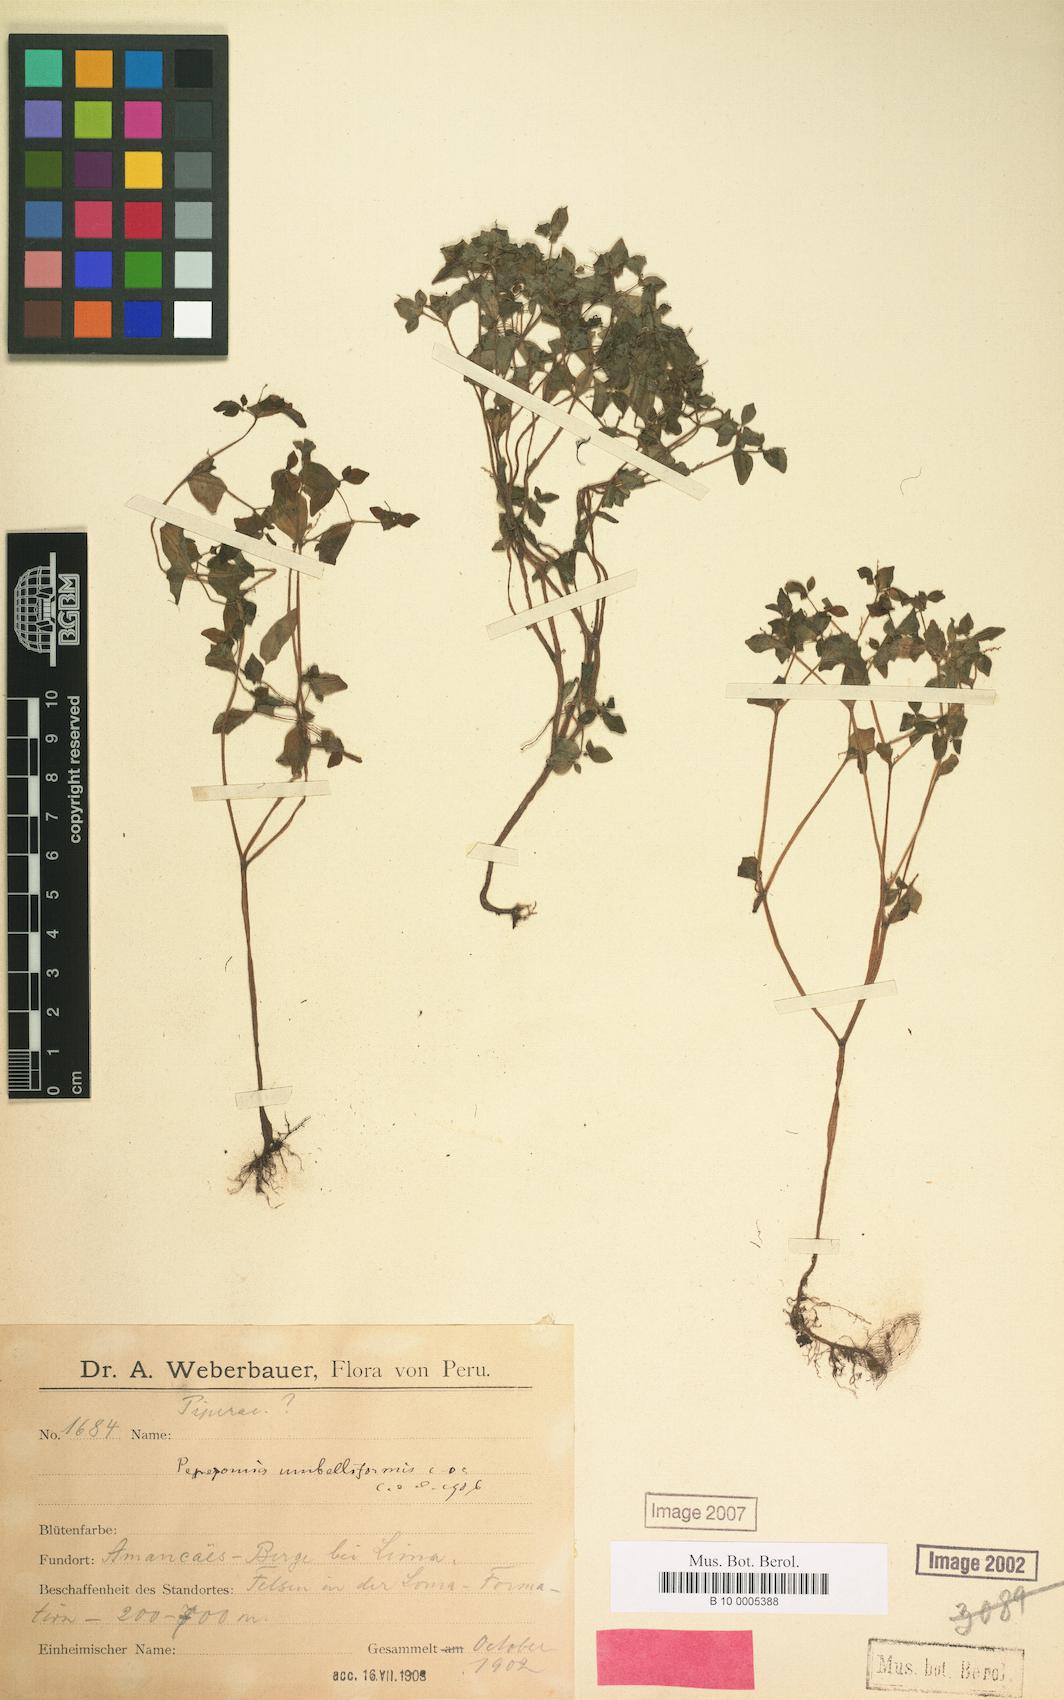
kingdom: Plantae
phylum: Tracheophyta
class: Magnoliopsida
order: Piperales
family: Piperaceae
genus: Peperomia
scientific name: Peperomia crystallina
